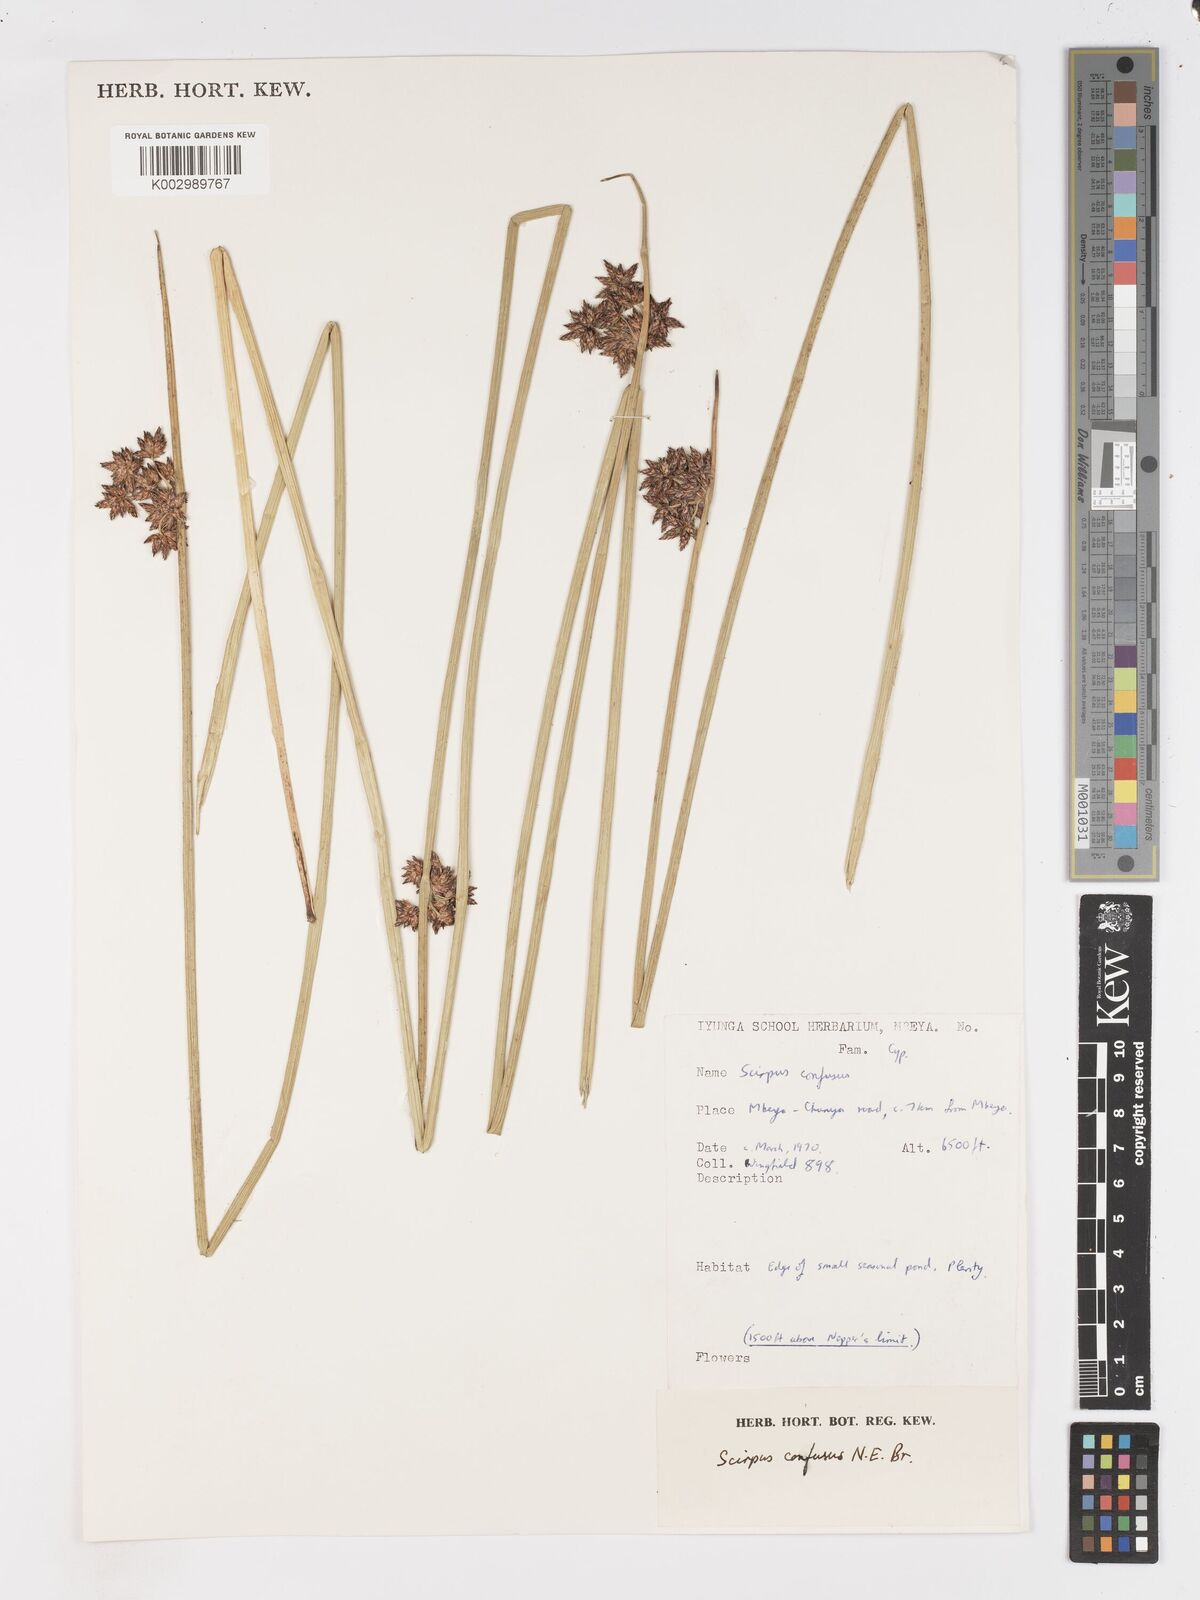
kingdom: Plantae
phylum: Tracheophyta
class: Liliopsida
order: Poales
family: Cyperaceae
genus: Schoenoplectiella
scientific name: Schoenoplectiella confusa
